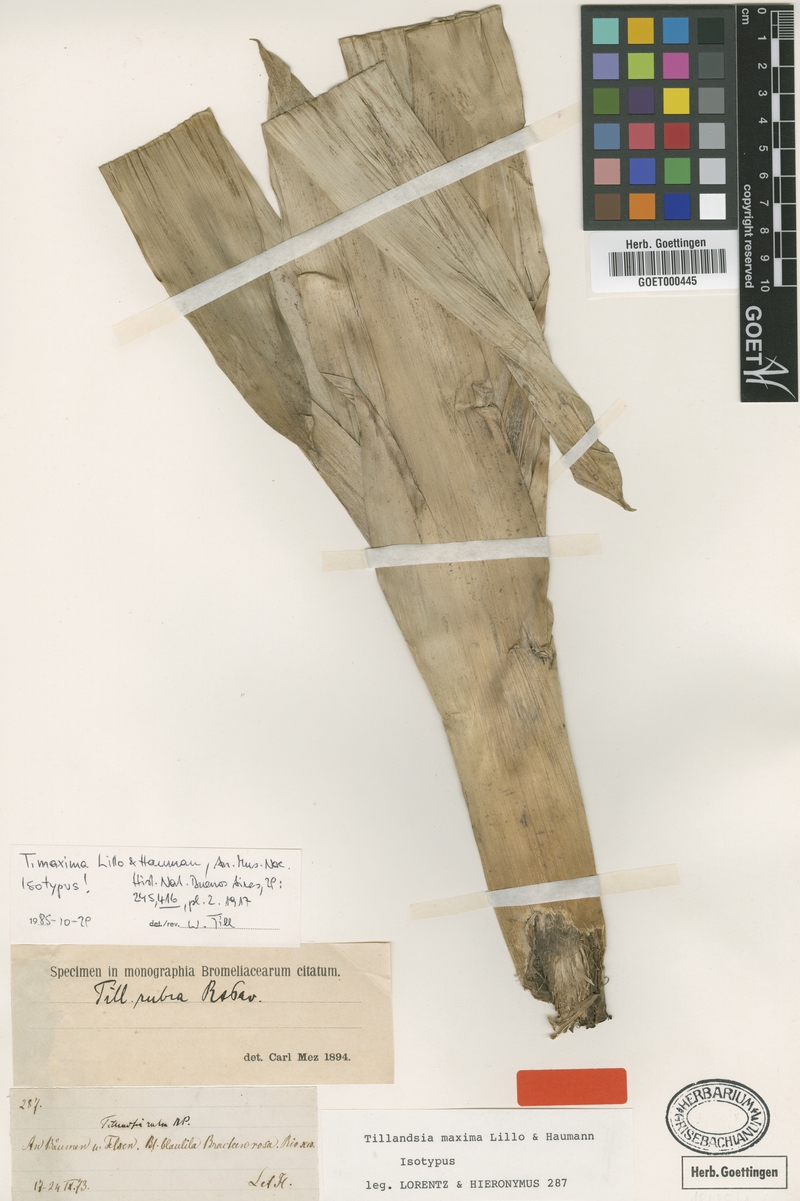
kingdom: Plantae
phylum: Tracheophyta
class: Liliopsida
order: Poales
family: Bromeliaceae
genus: Tillandsia
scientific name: Tillandsia australis
